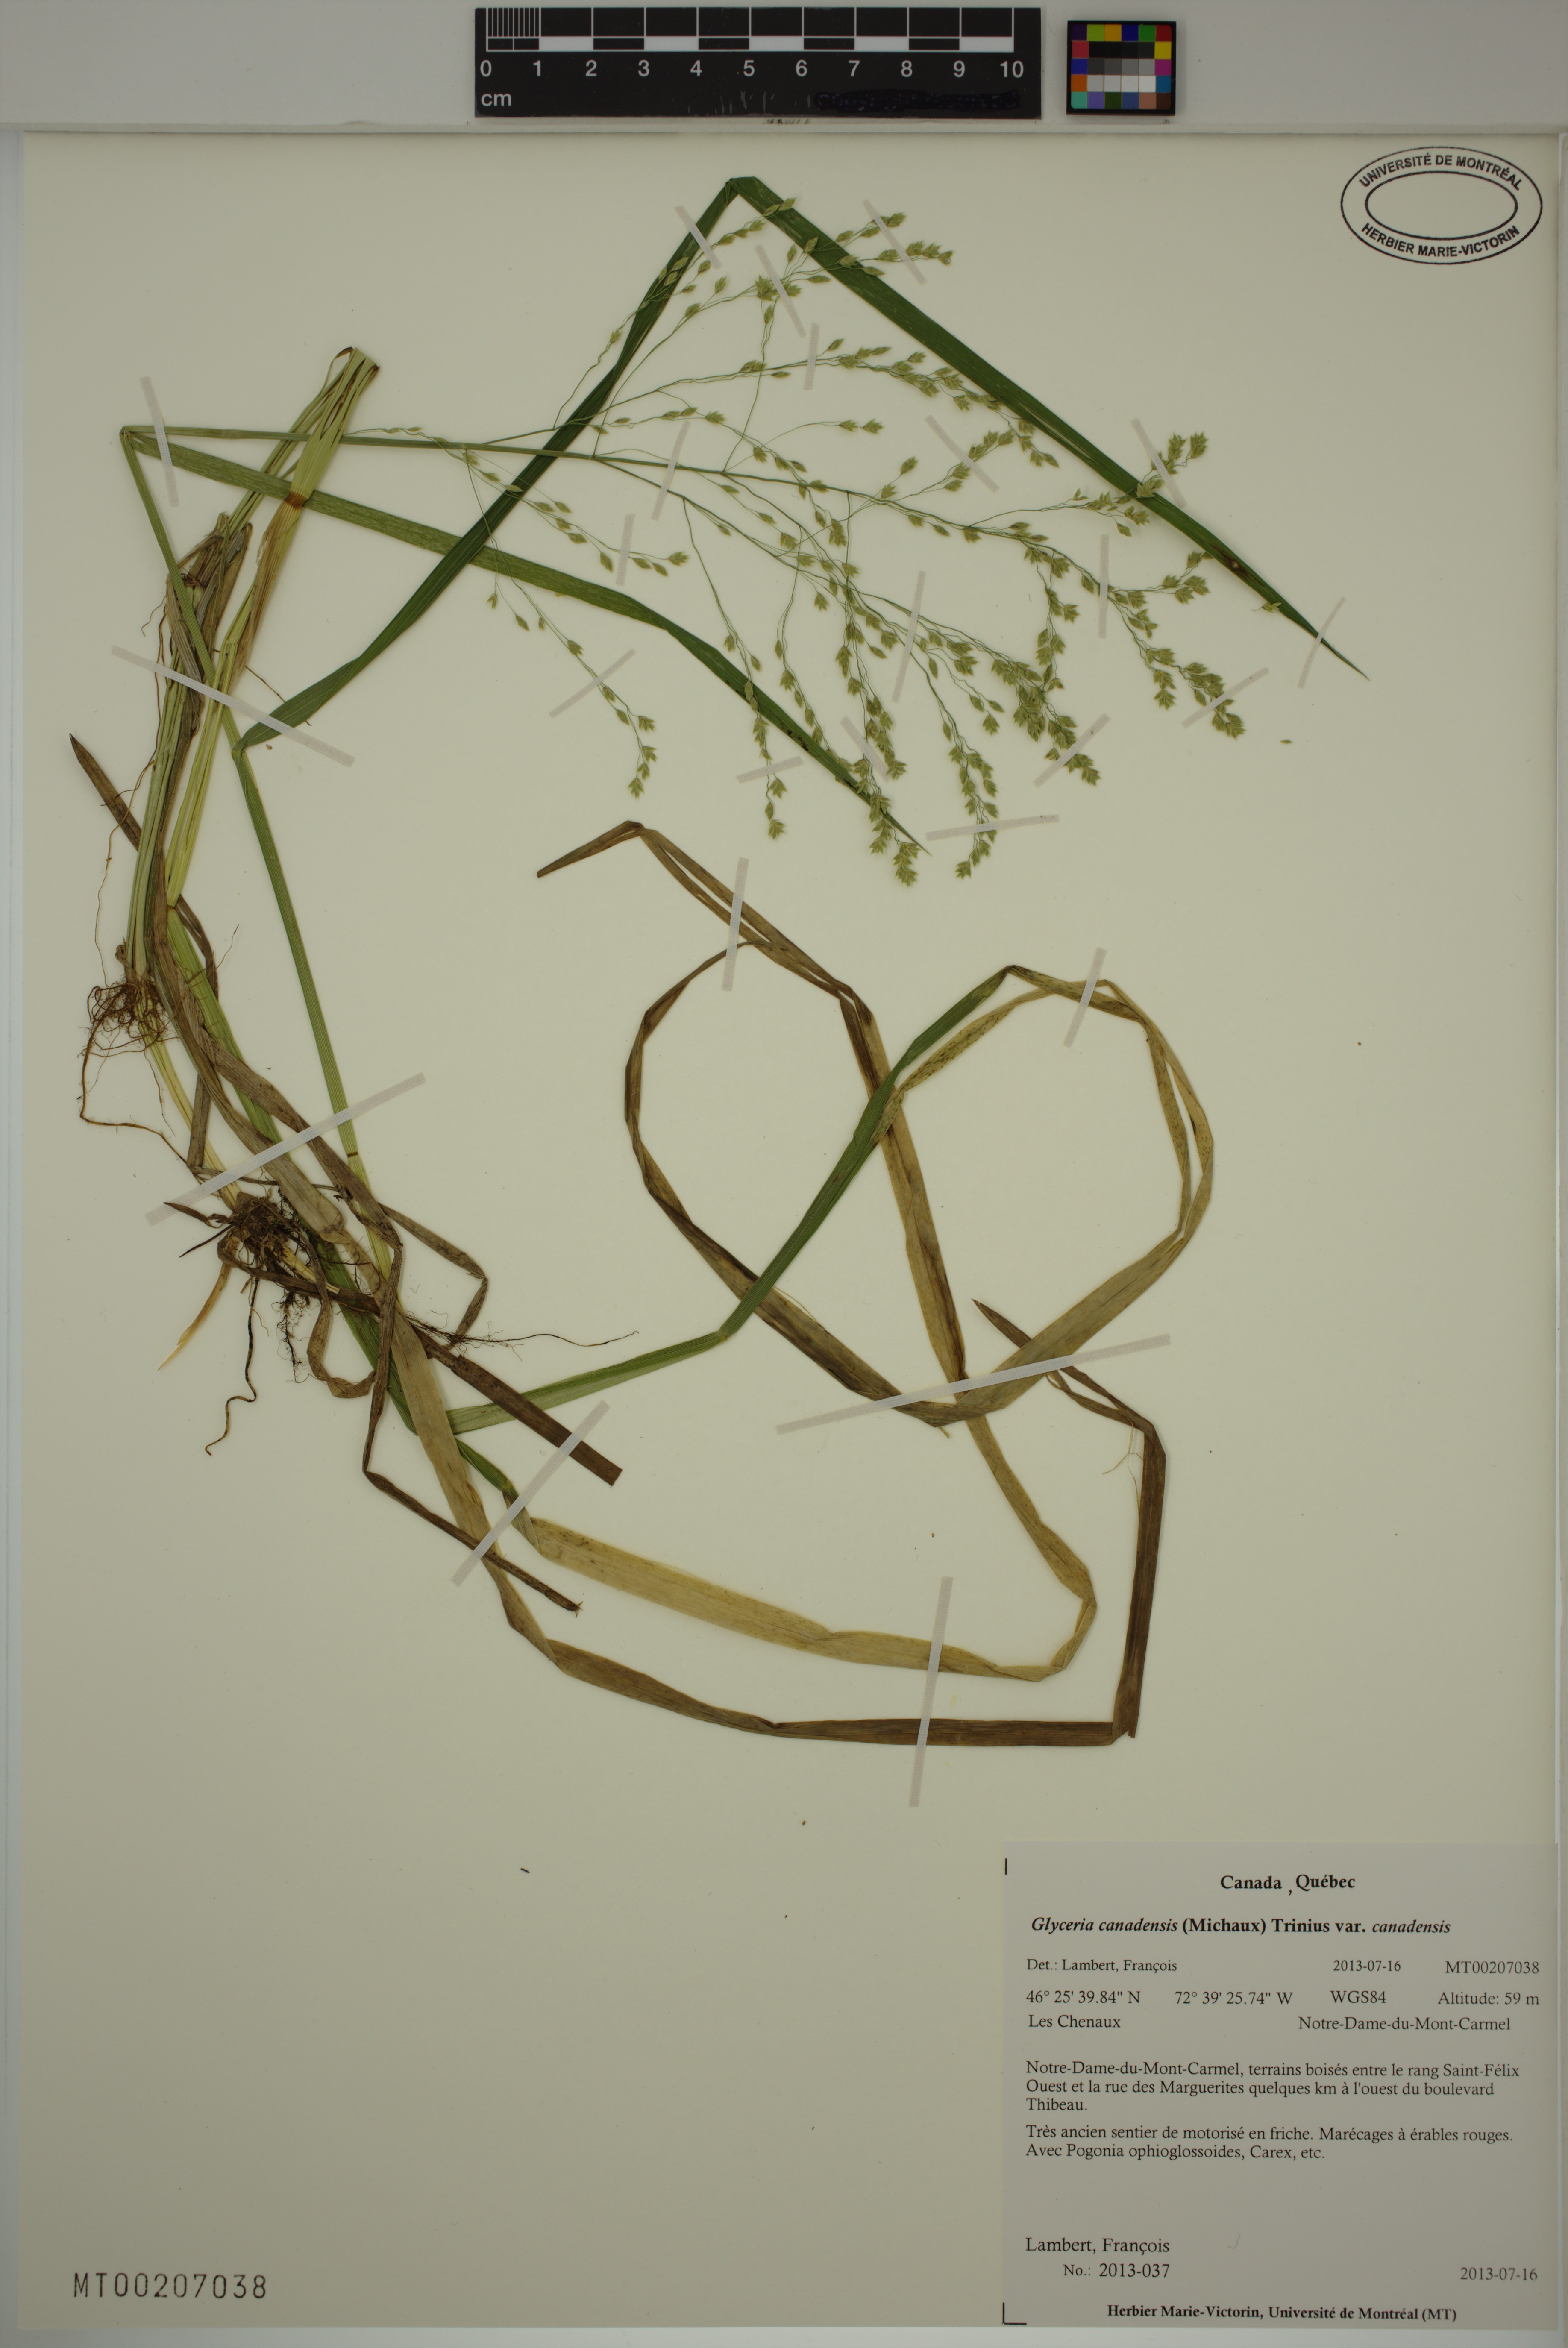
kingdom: Plantae
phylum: Tracheophyta
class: Liliopsida
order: Poales
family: Poaceae
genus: Glyceria
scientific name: Glyceria canadensis
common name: Canada mannagrass
